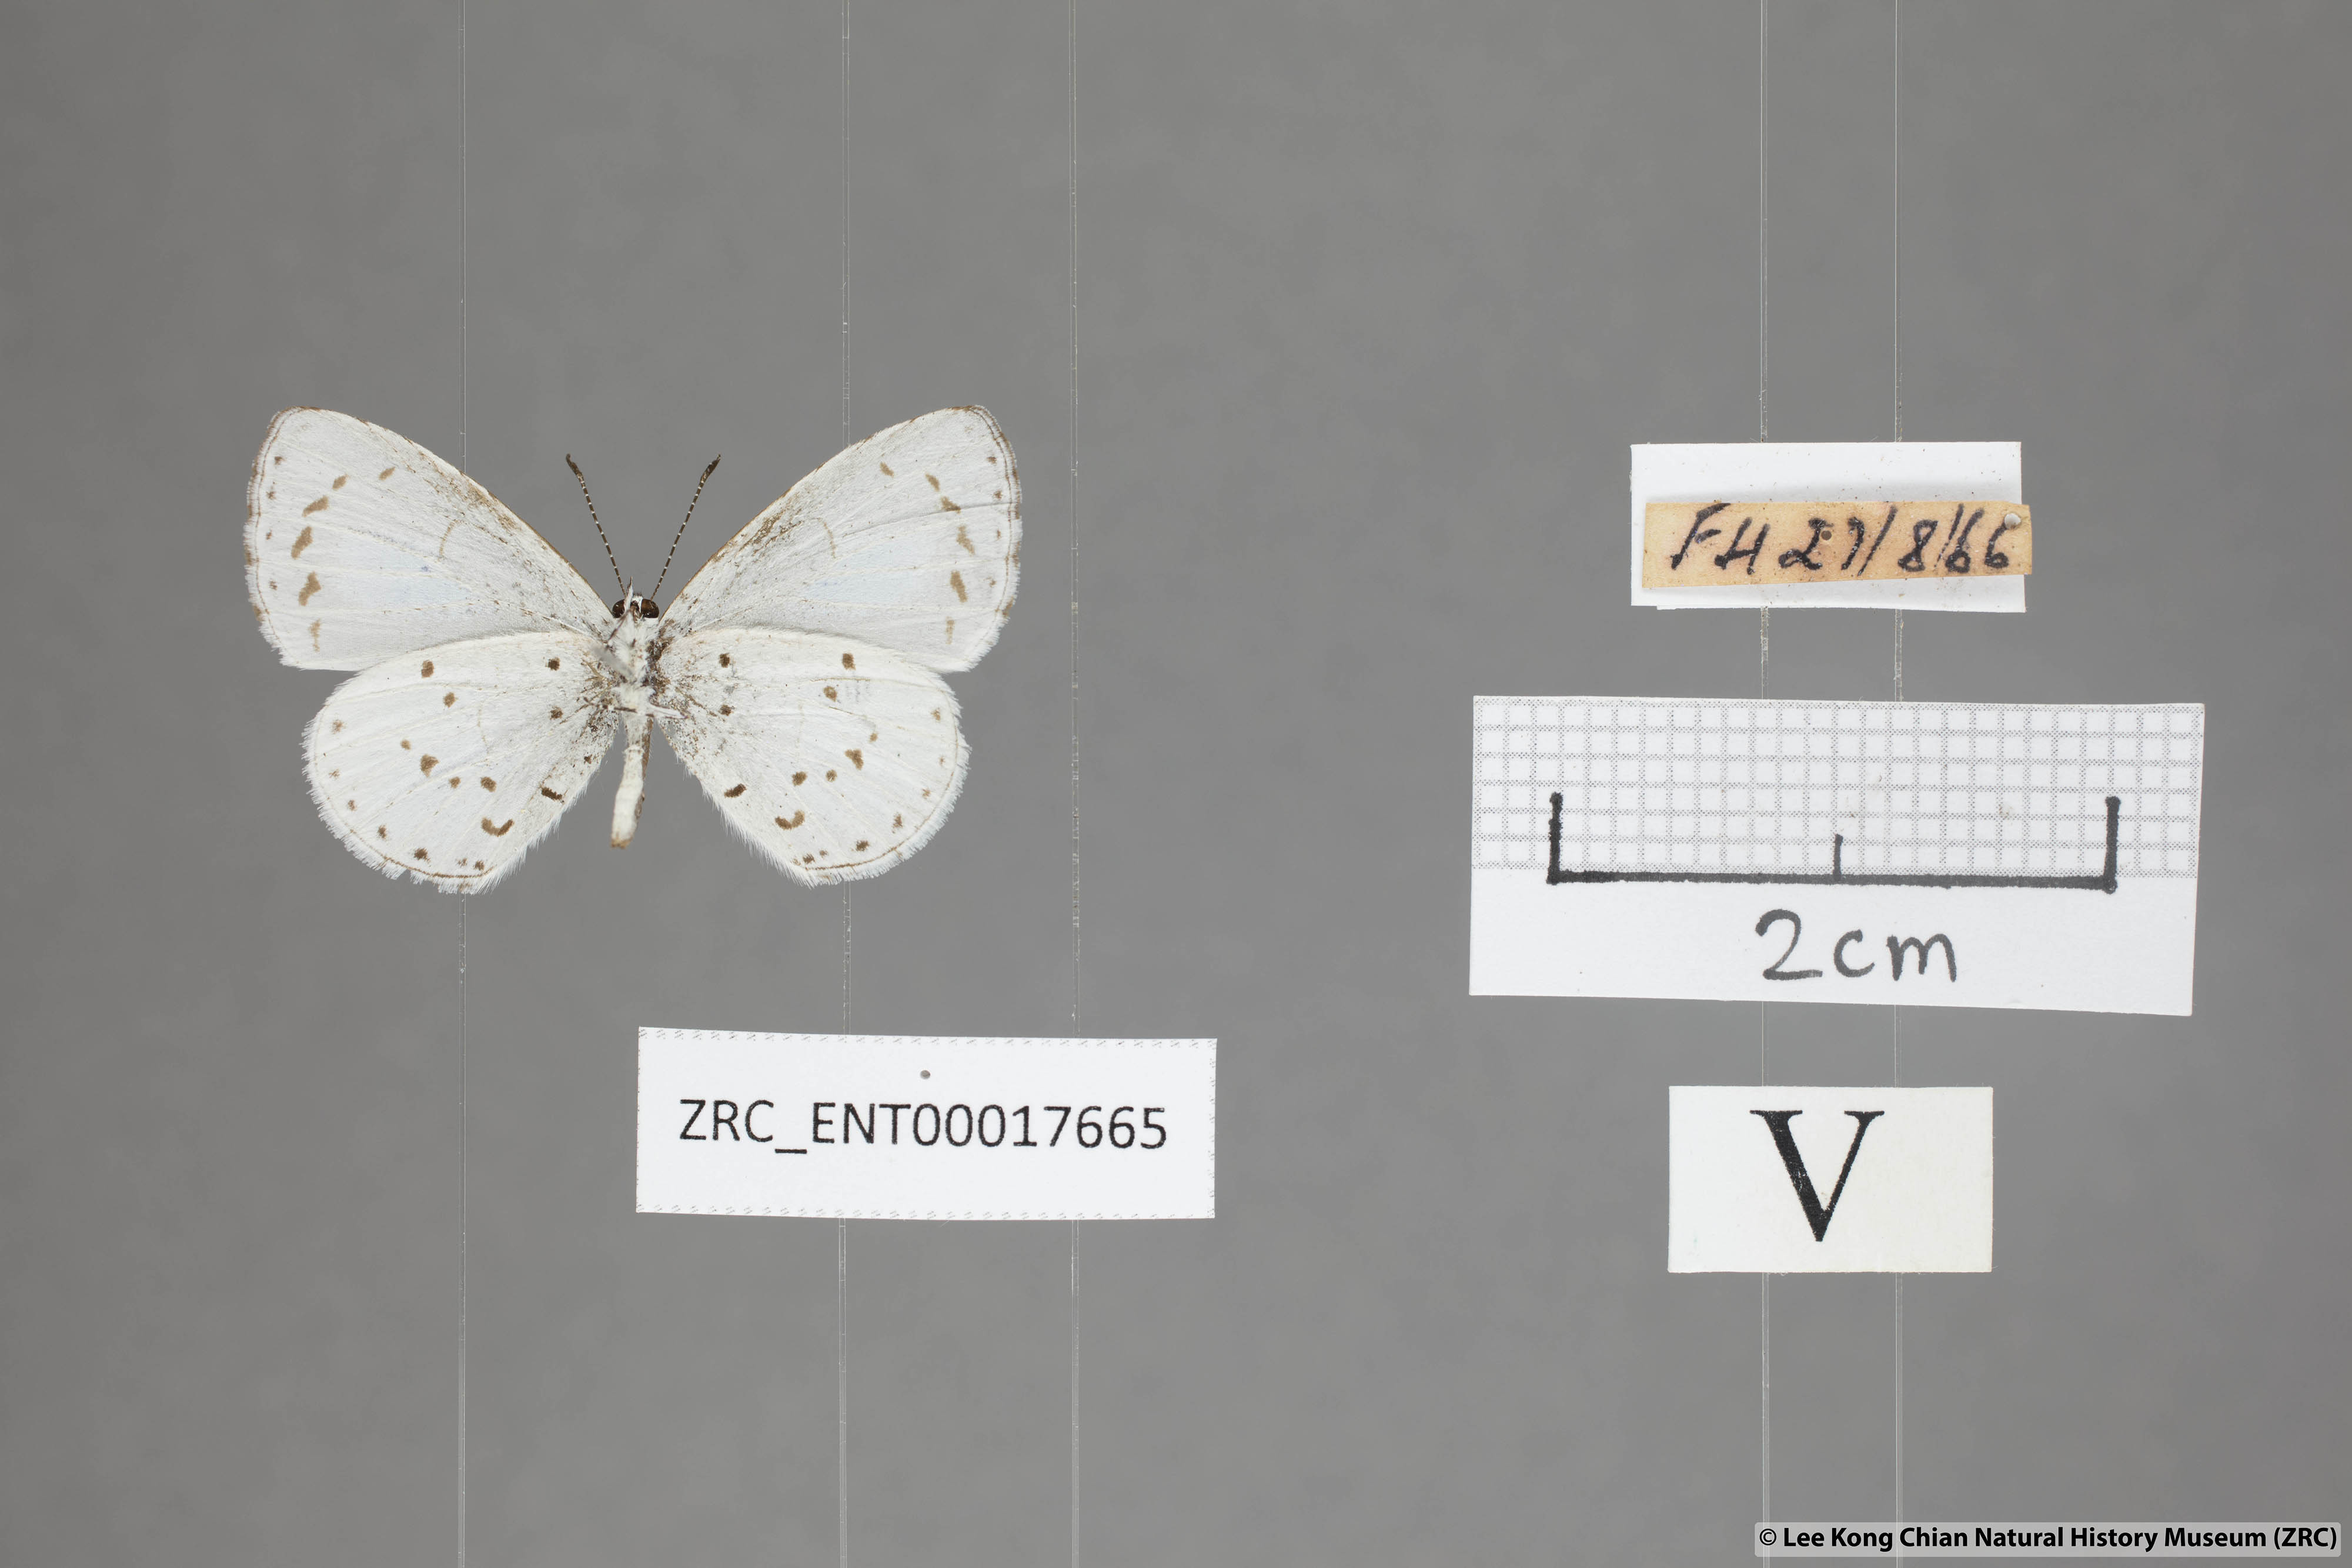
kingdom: Animalia
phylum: Arthropoda
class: Insecta
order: Lepidoptera
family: Lycaenidae
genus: Udara
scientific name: Udara albocaerulea
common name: Albocerulean
